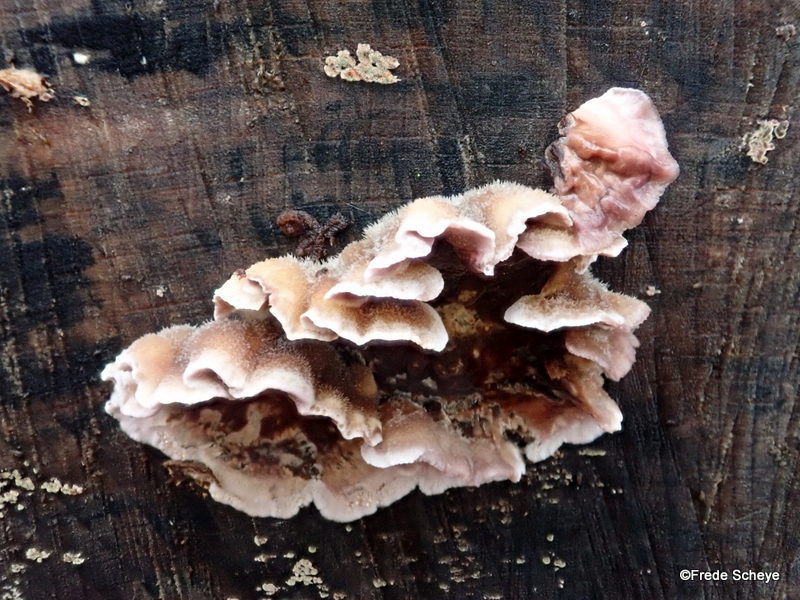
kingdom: Fungi
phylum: Basidiomycota
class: Agaricomycetes
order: Agaricales
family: Cyphellaceae
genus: Chondrostereum
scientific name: Chondrostereum purpureum
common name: purpurlædersvamp
